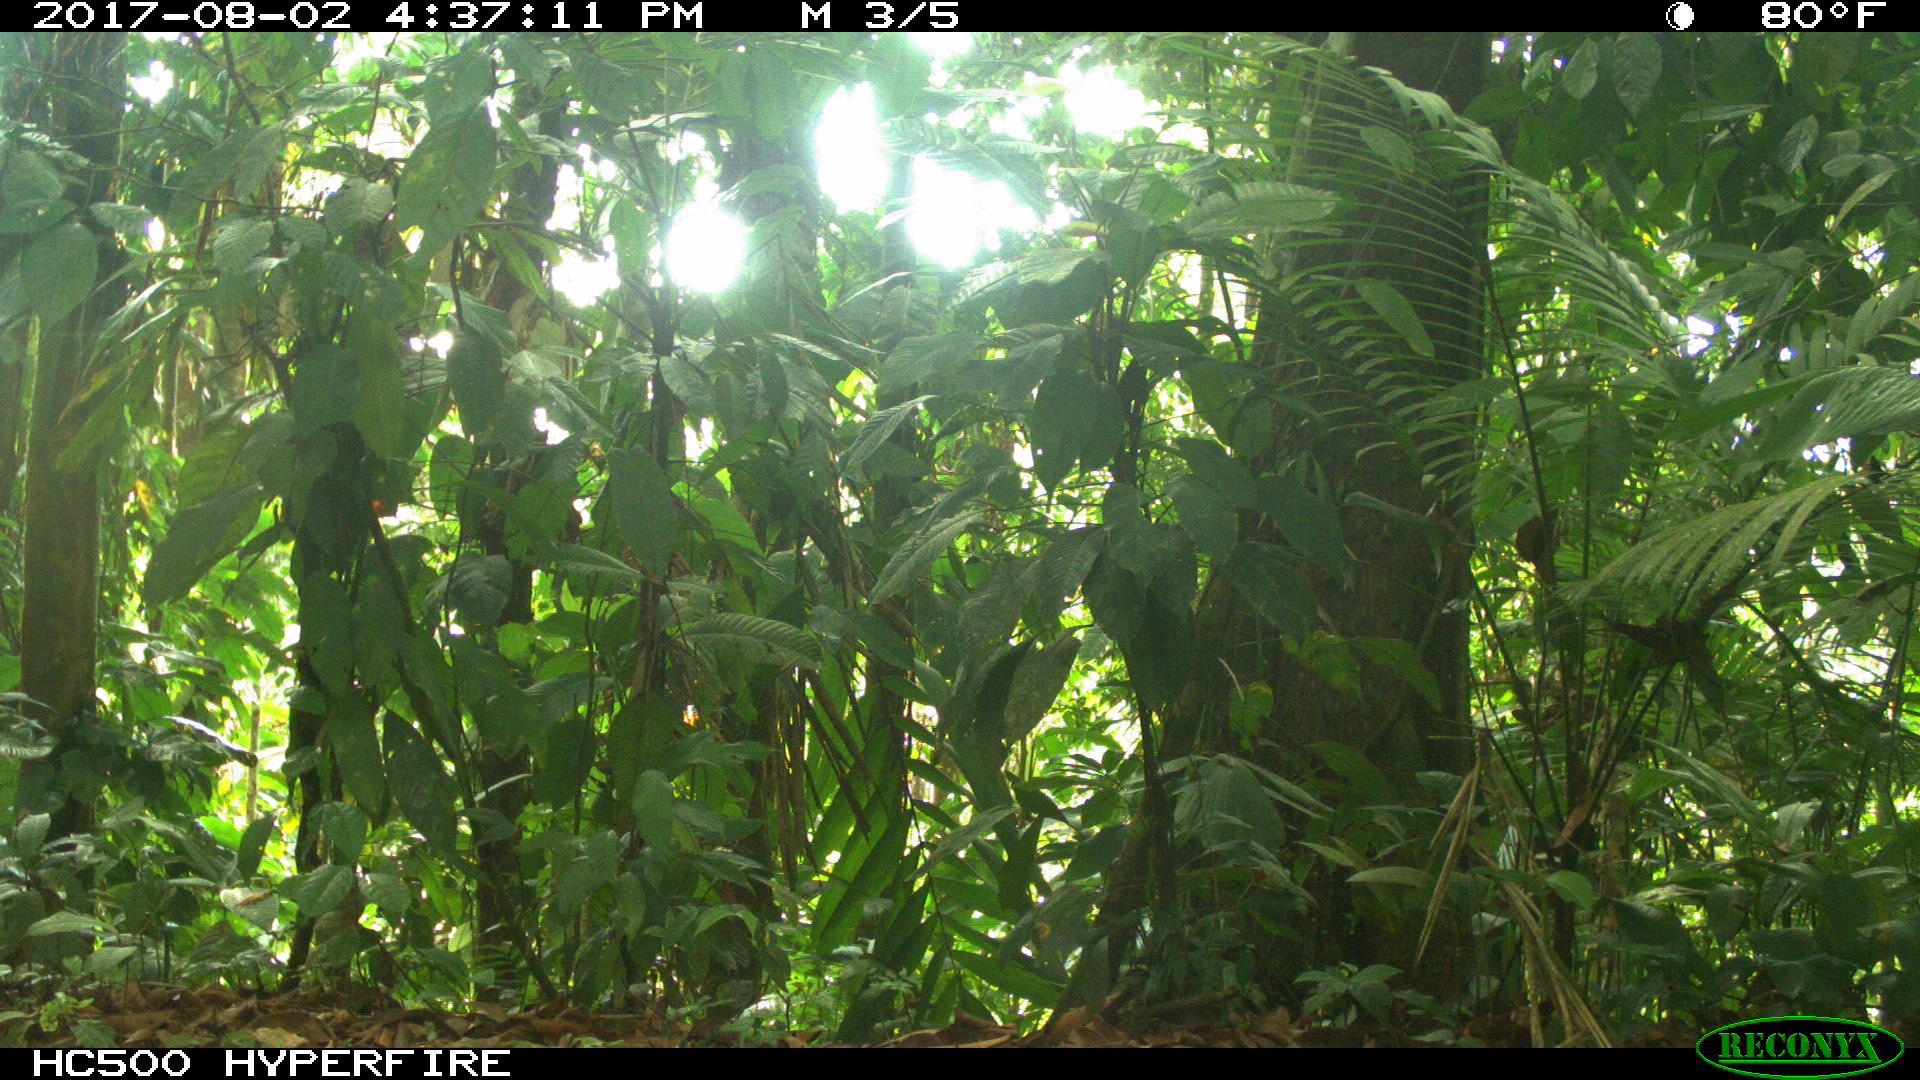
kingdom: Animalia
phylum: Chordata
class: Mammalia
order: Artiodactyla
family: Tayassuidae
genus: Tayassu
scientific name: Tayassu pecari
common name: White-lipped peccary
